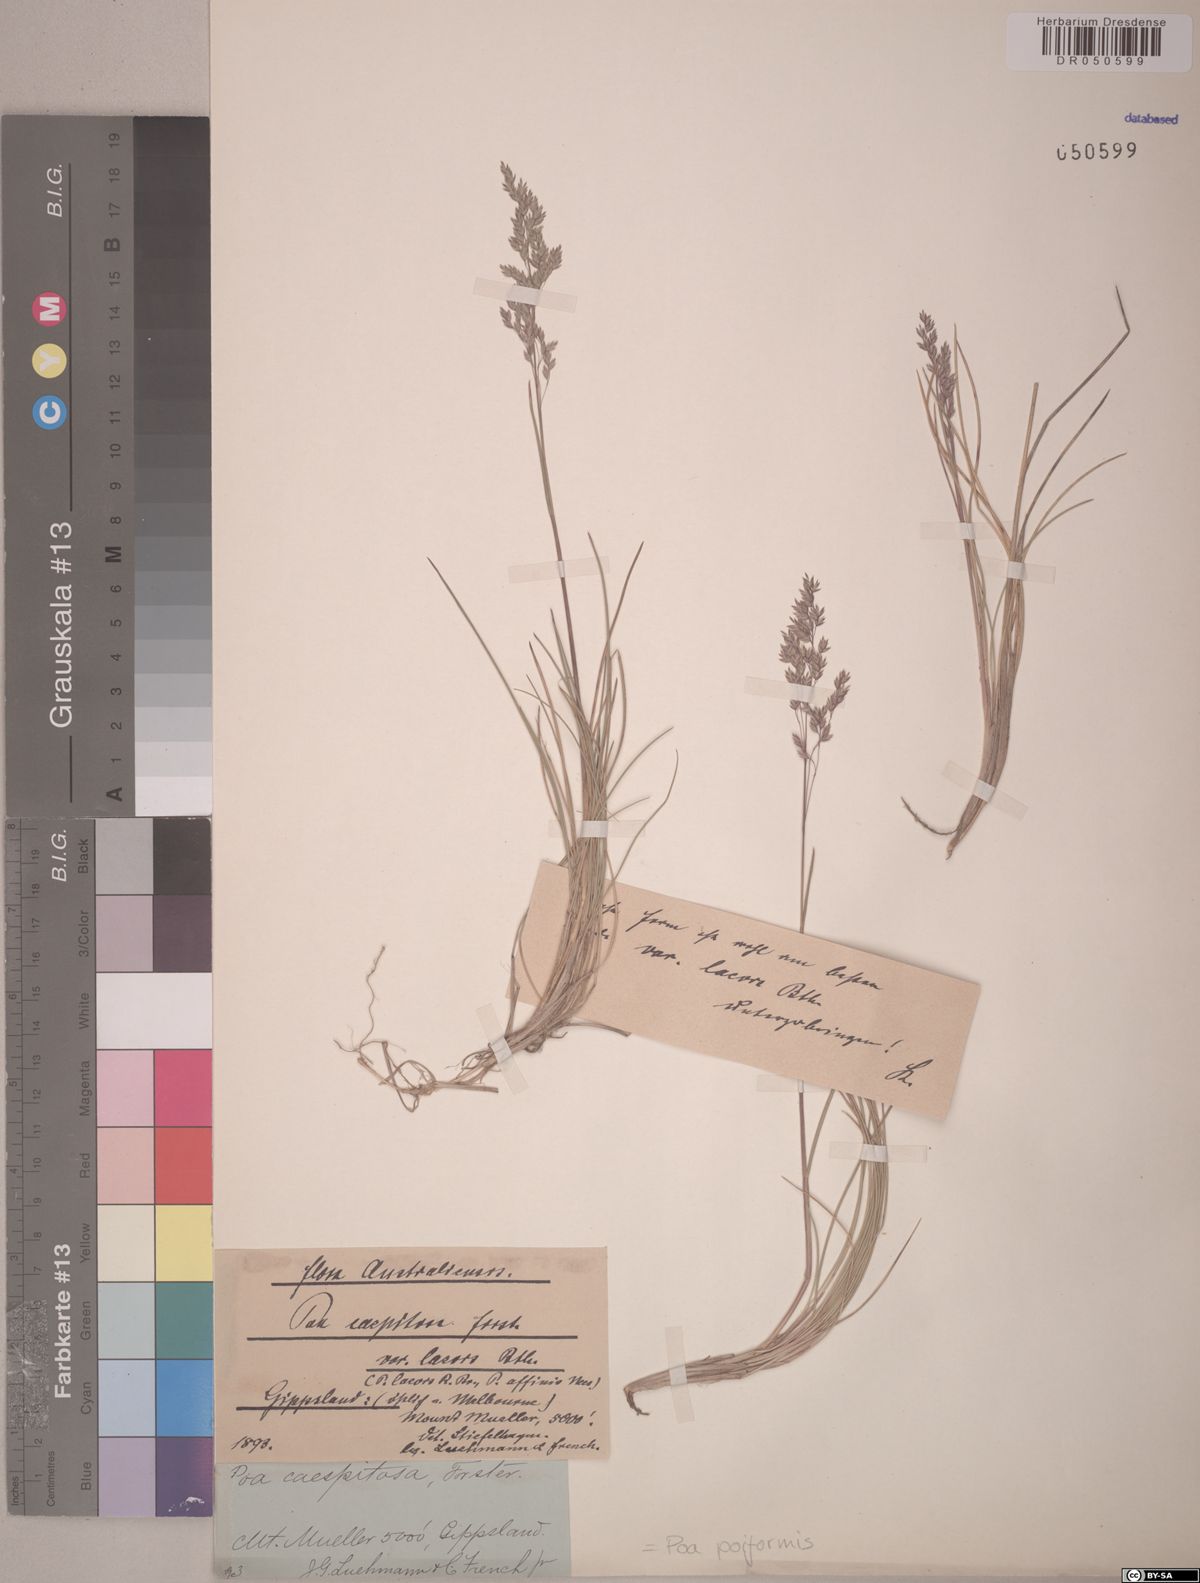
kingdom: Plantae
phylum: Tracheophyta
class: Liliopsida
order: Poales
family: Poaceae
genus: Poa
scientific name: Poa poiformis
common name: Tussock poa
